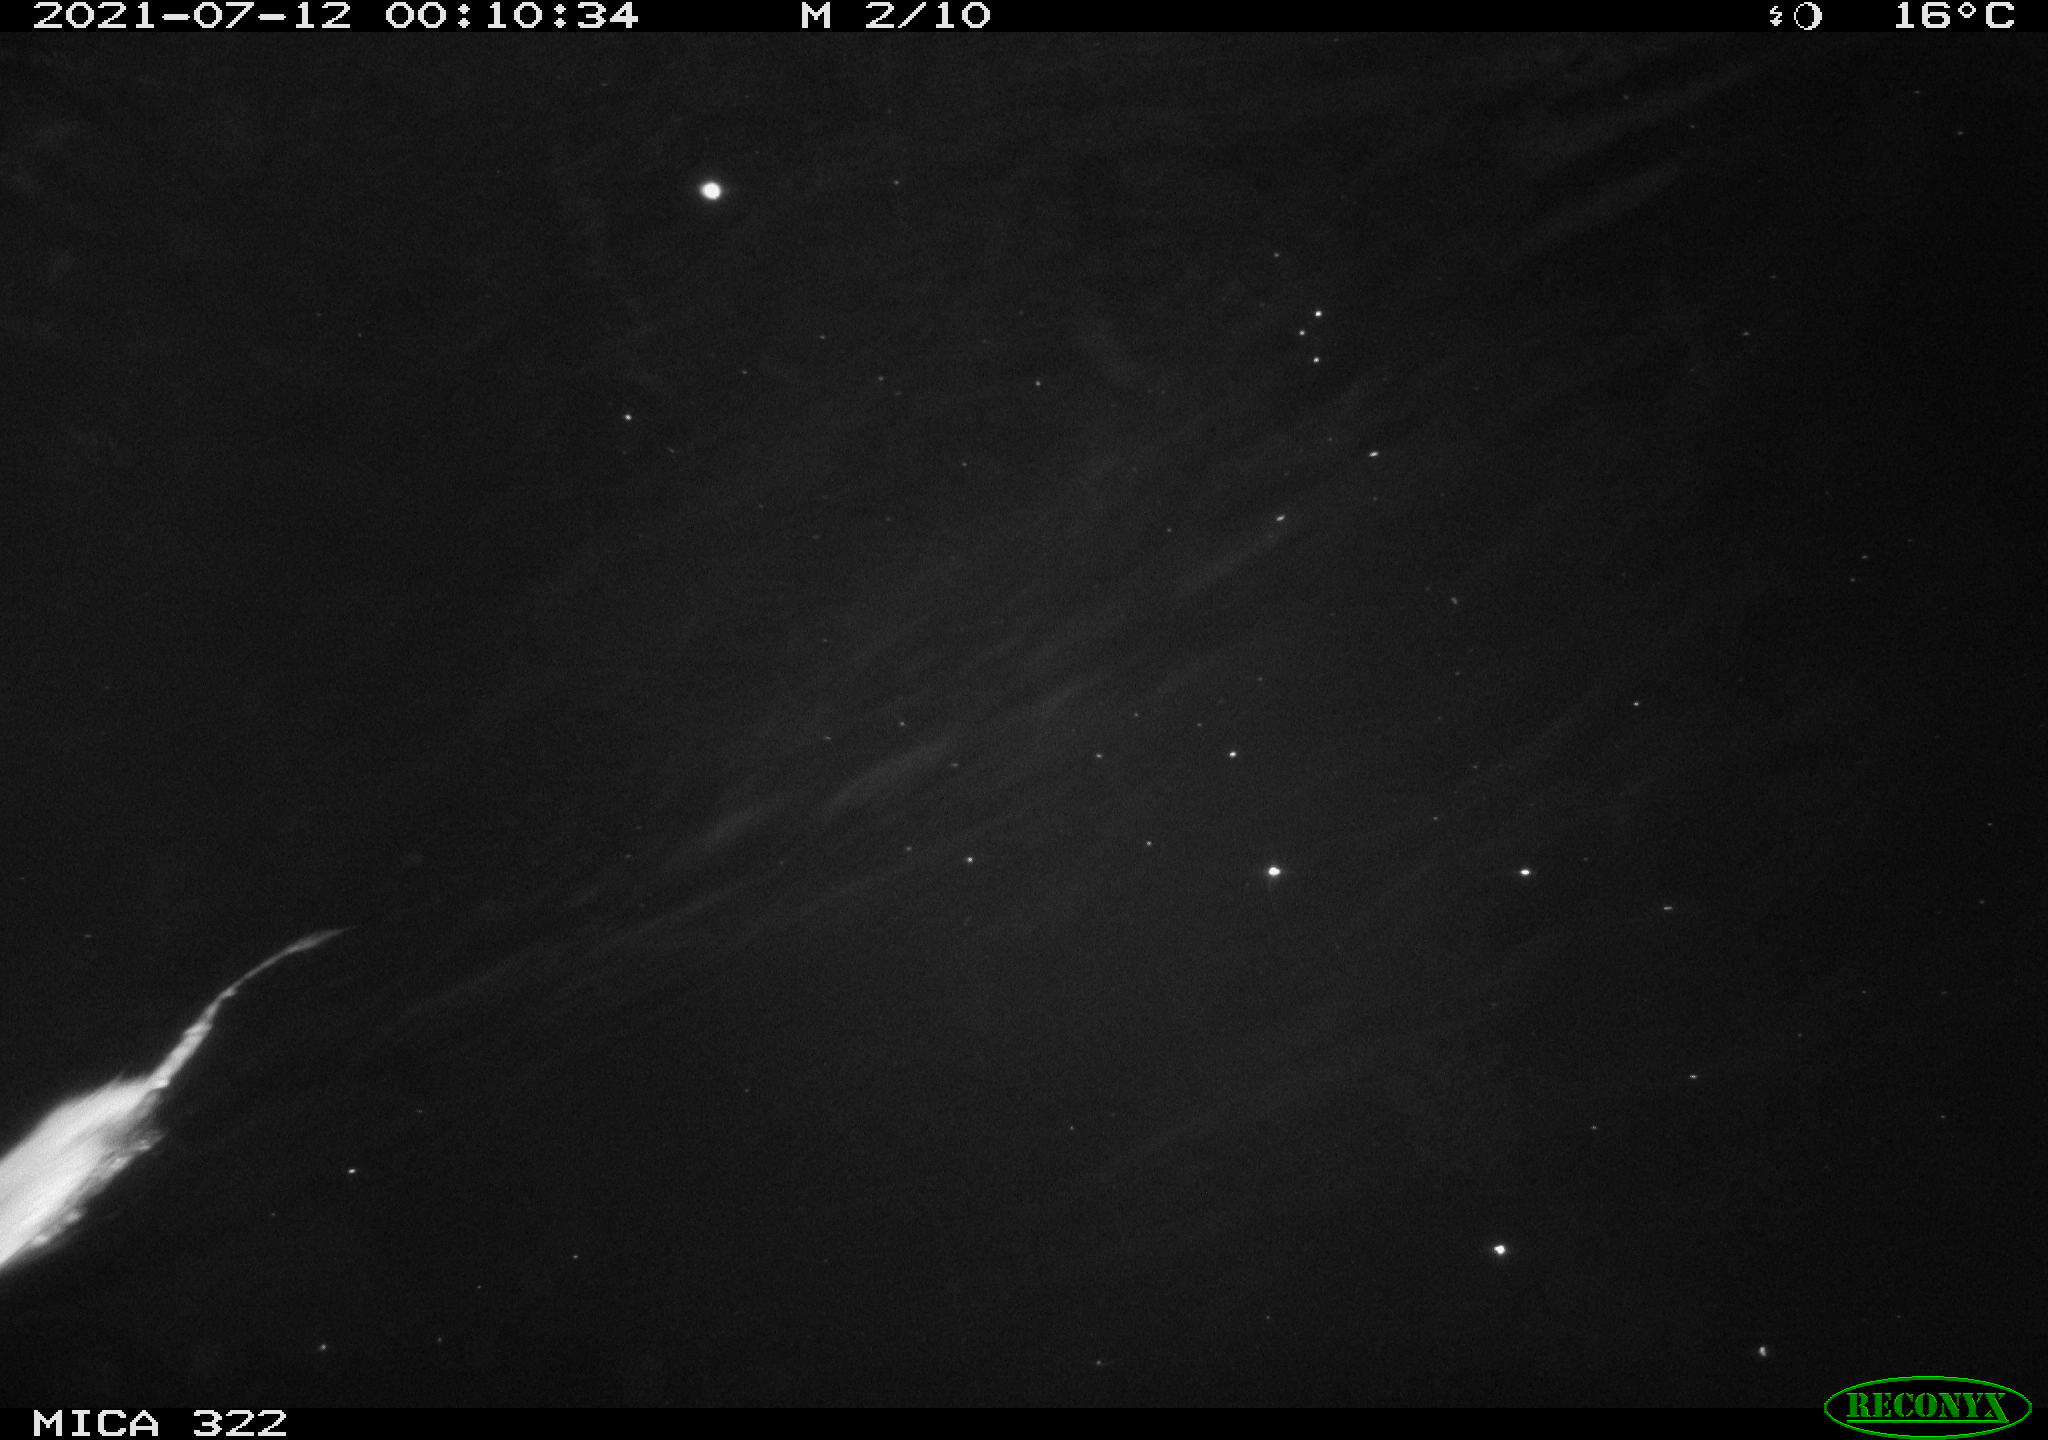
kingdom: Animalia
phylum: Chordata
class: Mammalia
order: Rodentia
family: Muridae
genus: Rattus
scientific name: Rattus norvegicus
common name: Brown rat
